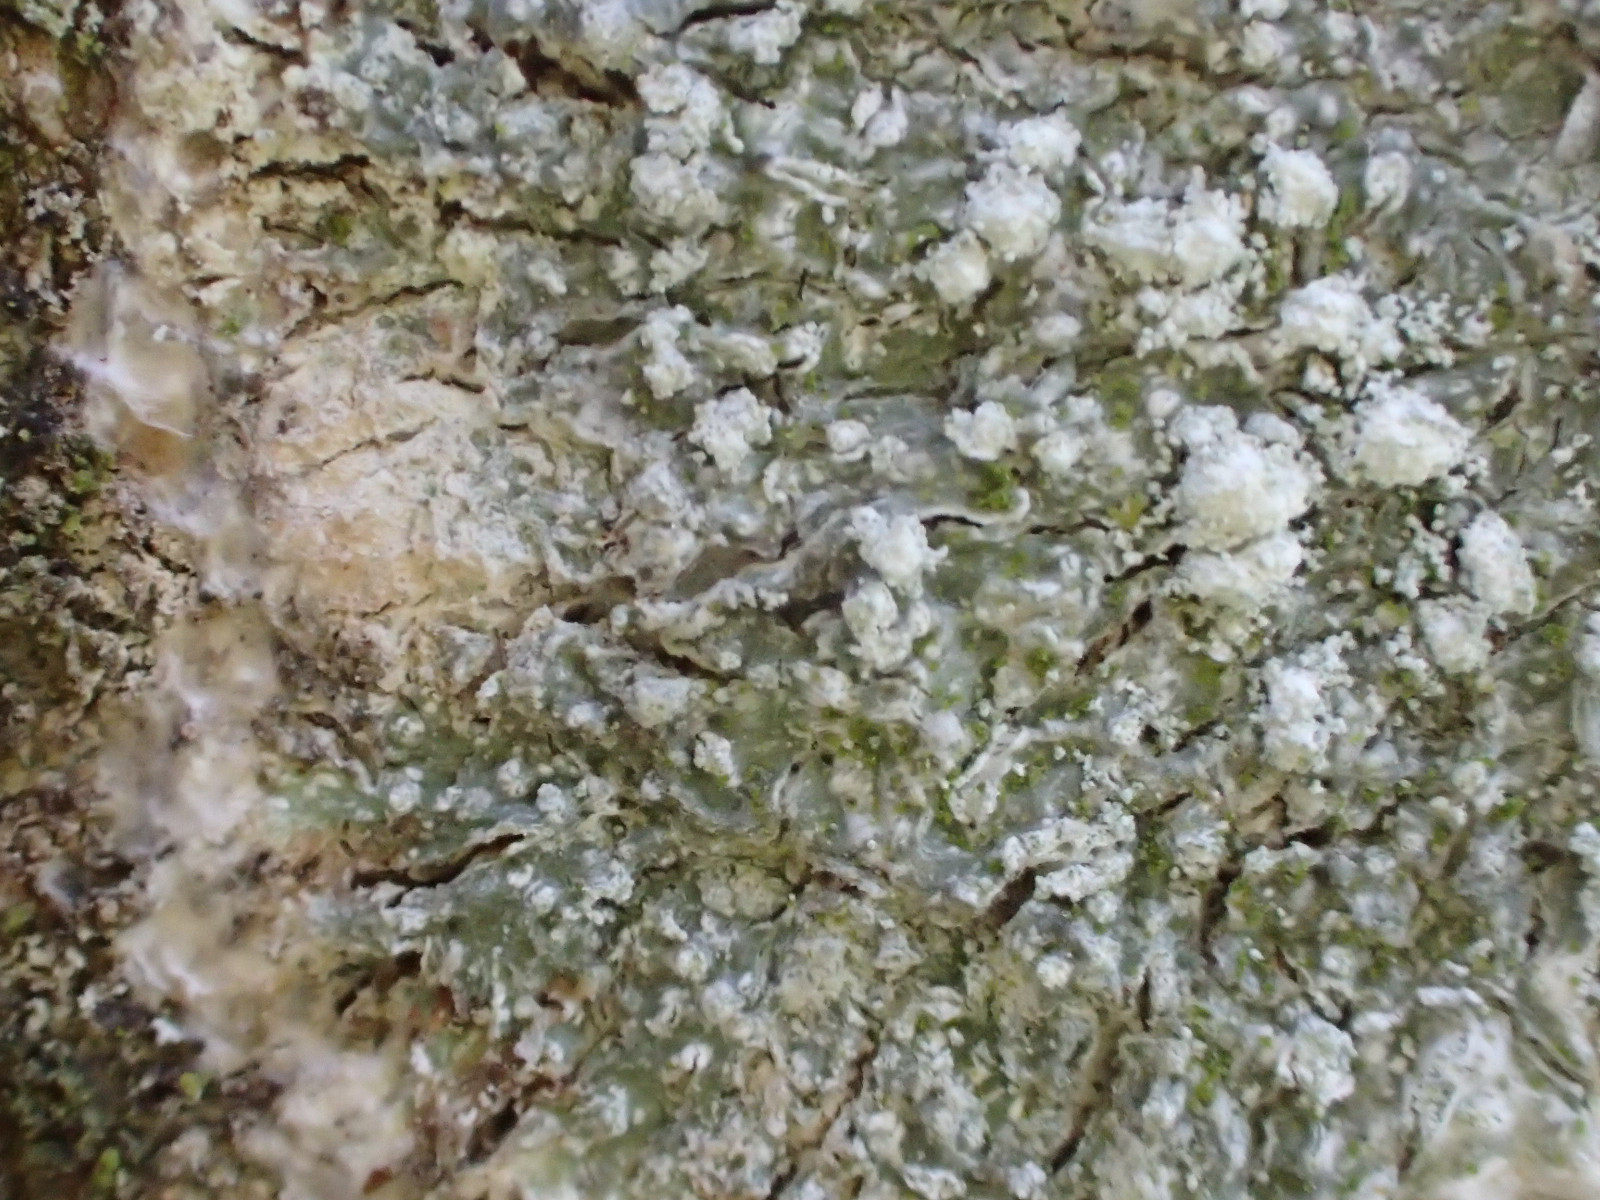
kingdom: Fungi
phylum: Ascomycota
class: Lecanoromycetes
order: Pertusariales
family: Pertusariaceae
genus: Lepra
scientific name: Lepra amara
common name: bitter prikvortelav
